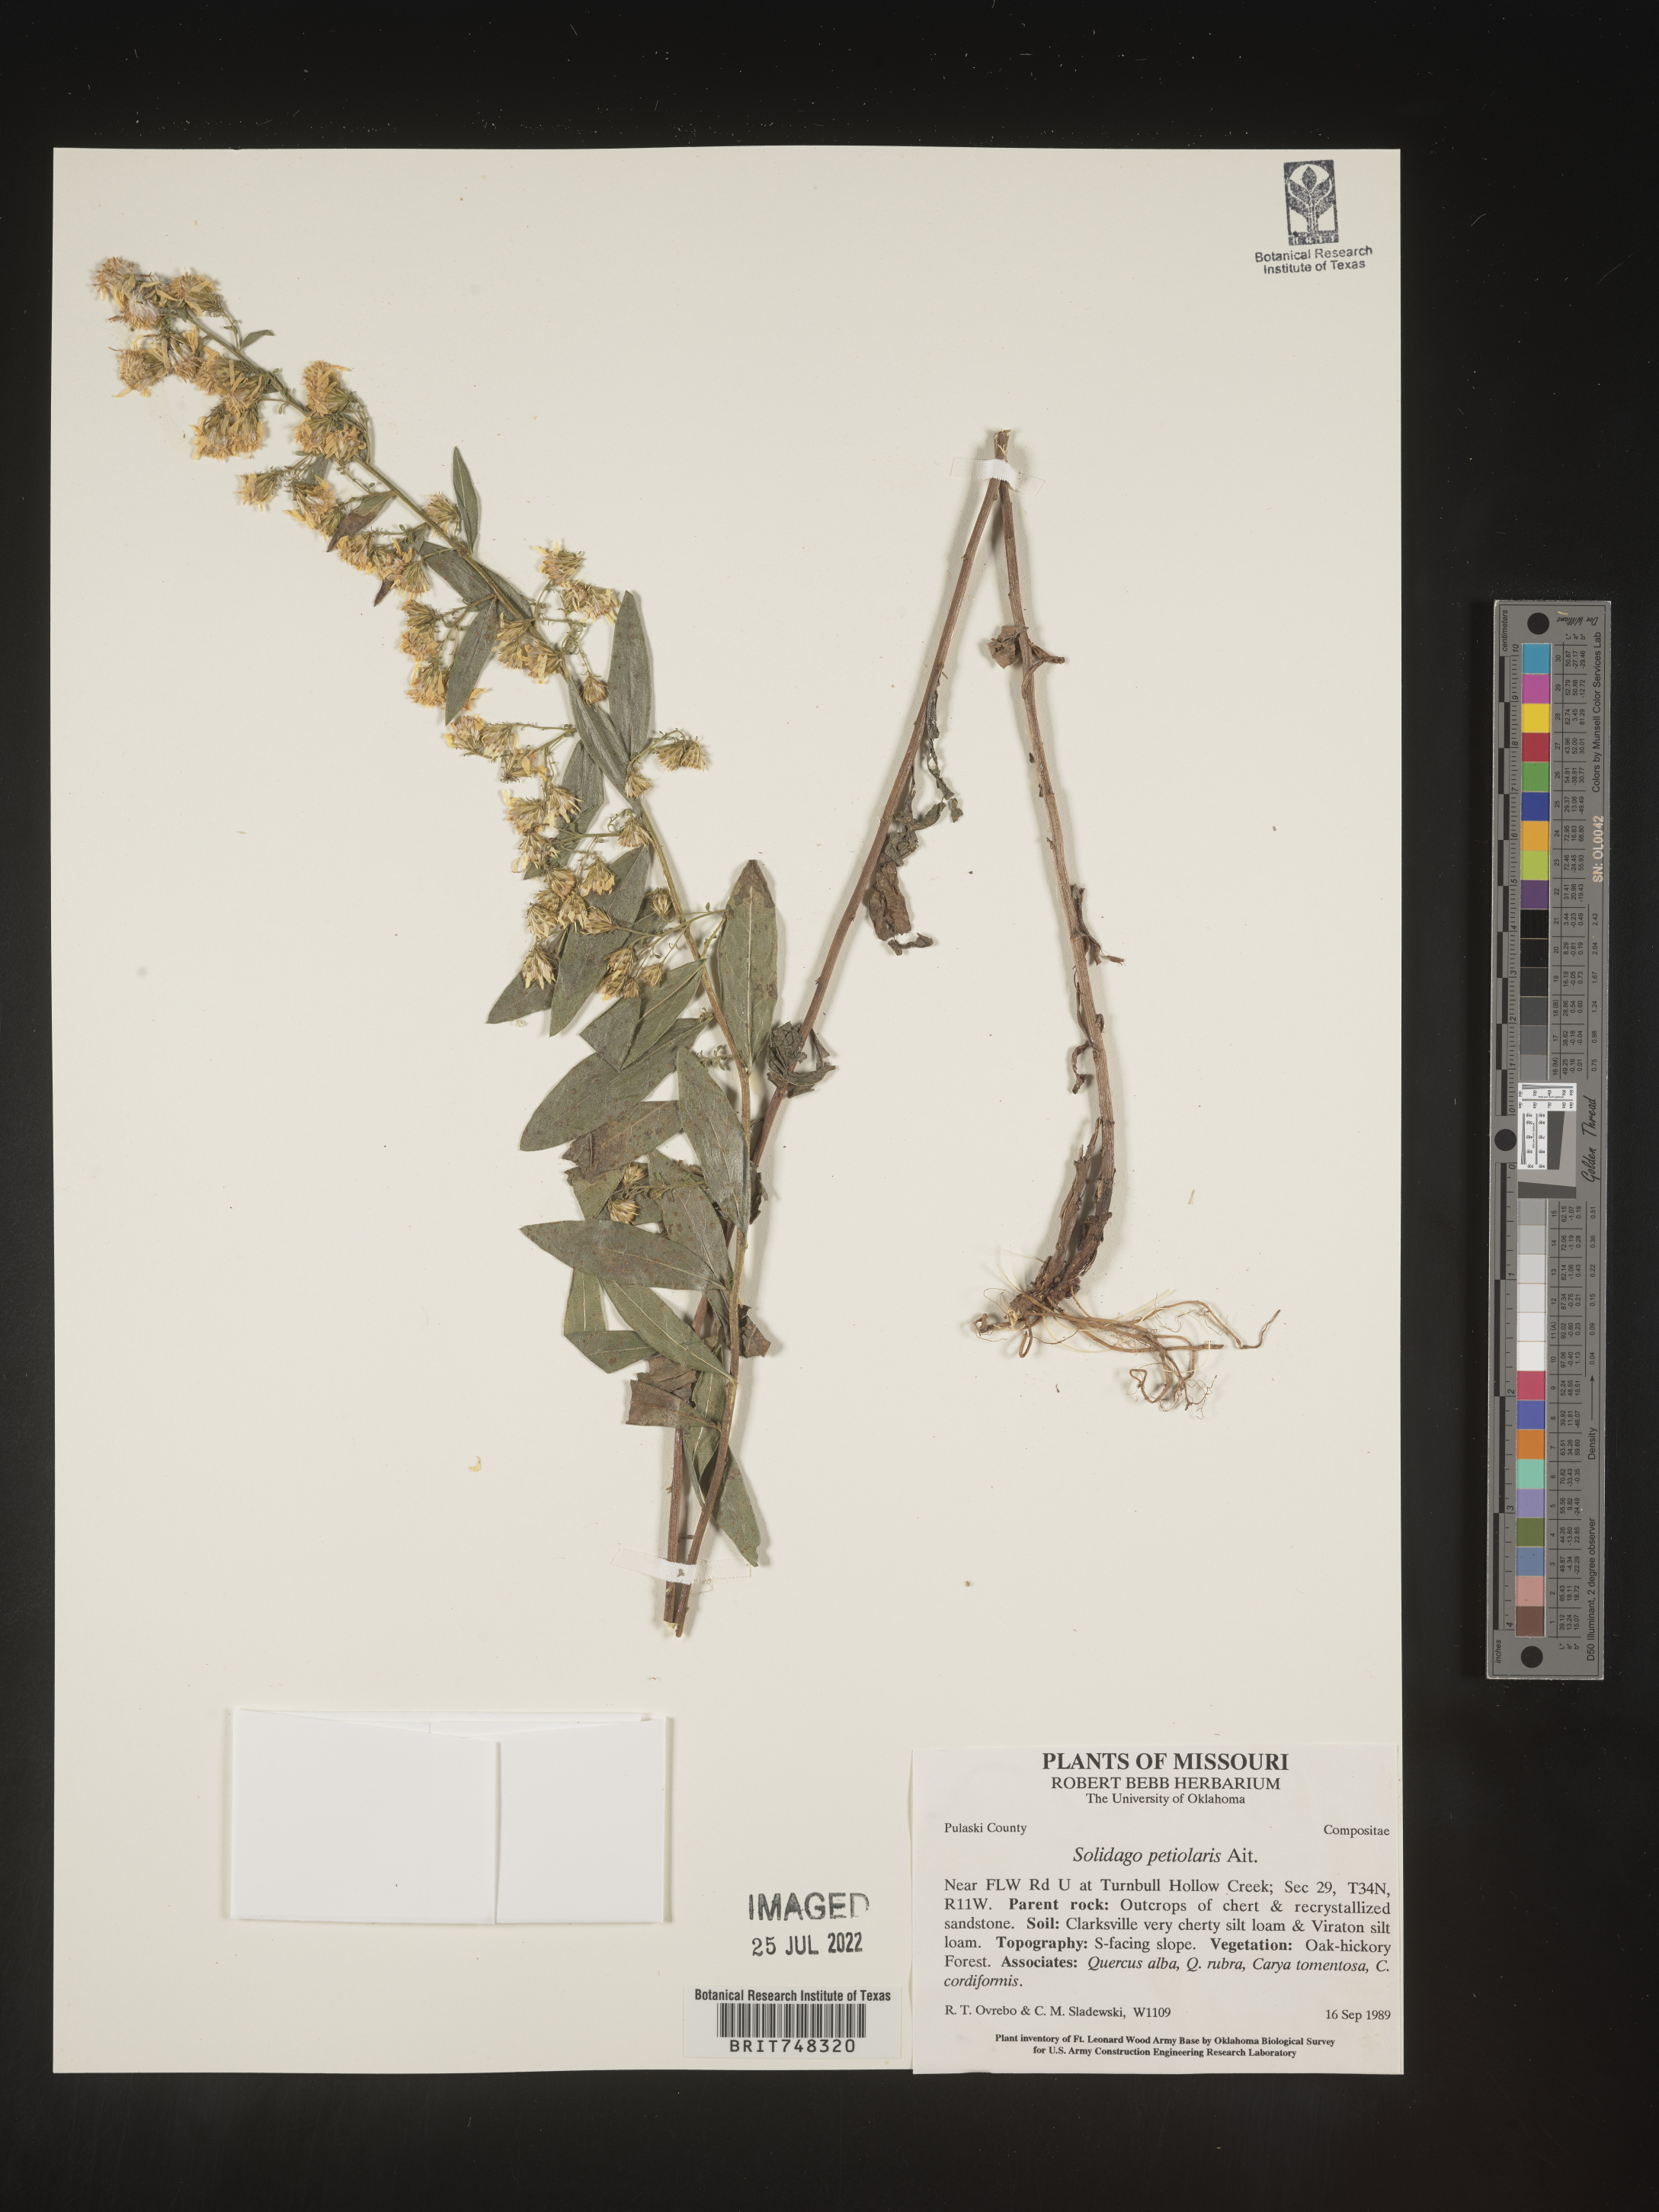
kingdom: Plantae
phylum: Tracheophyta
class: Magnoliopsida
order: Asterales
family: Asteraceae
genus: Solidago
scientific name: Solidago petiolaris
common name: Downy ragged goldenrod
